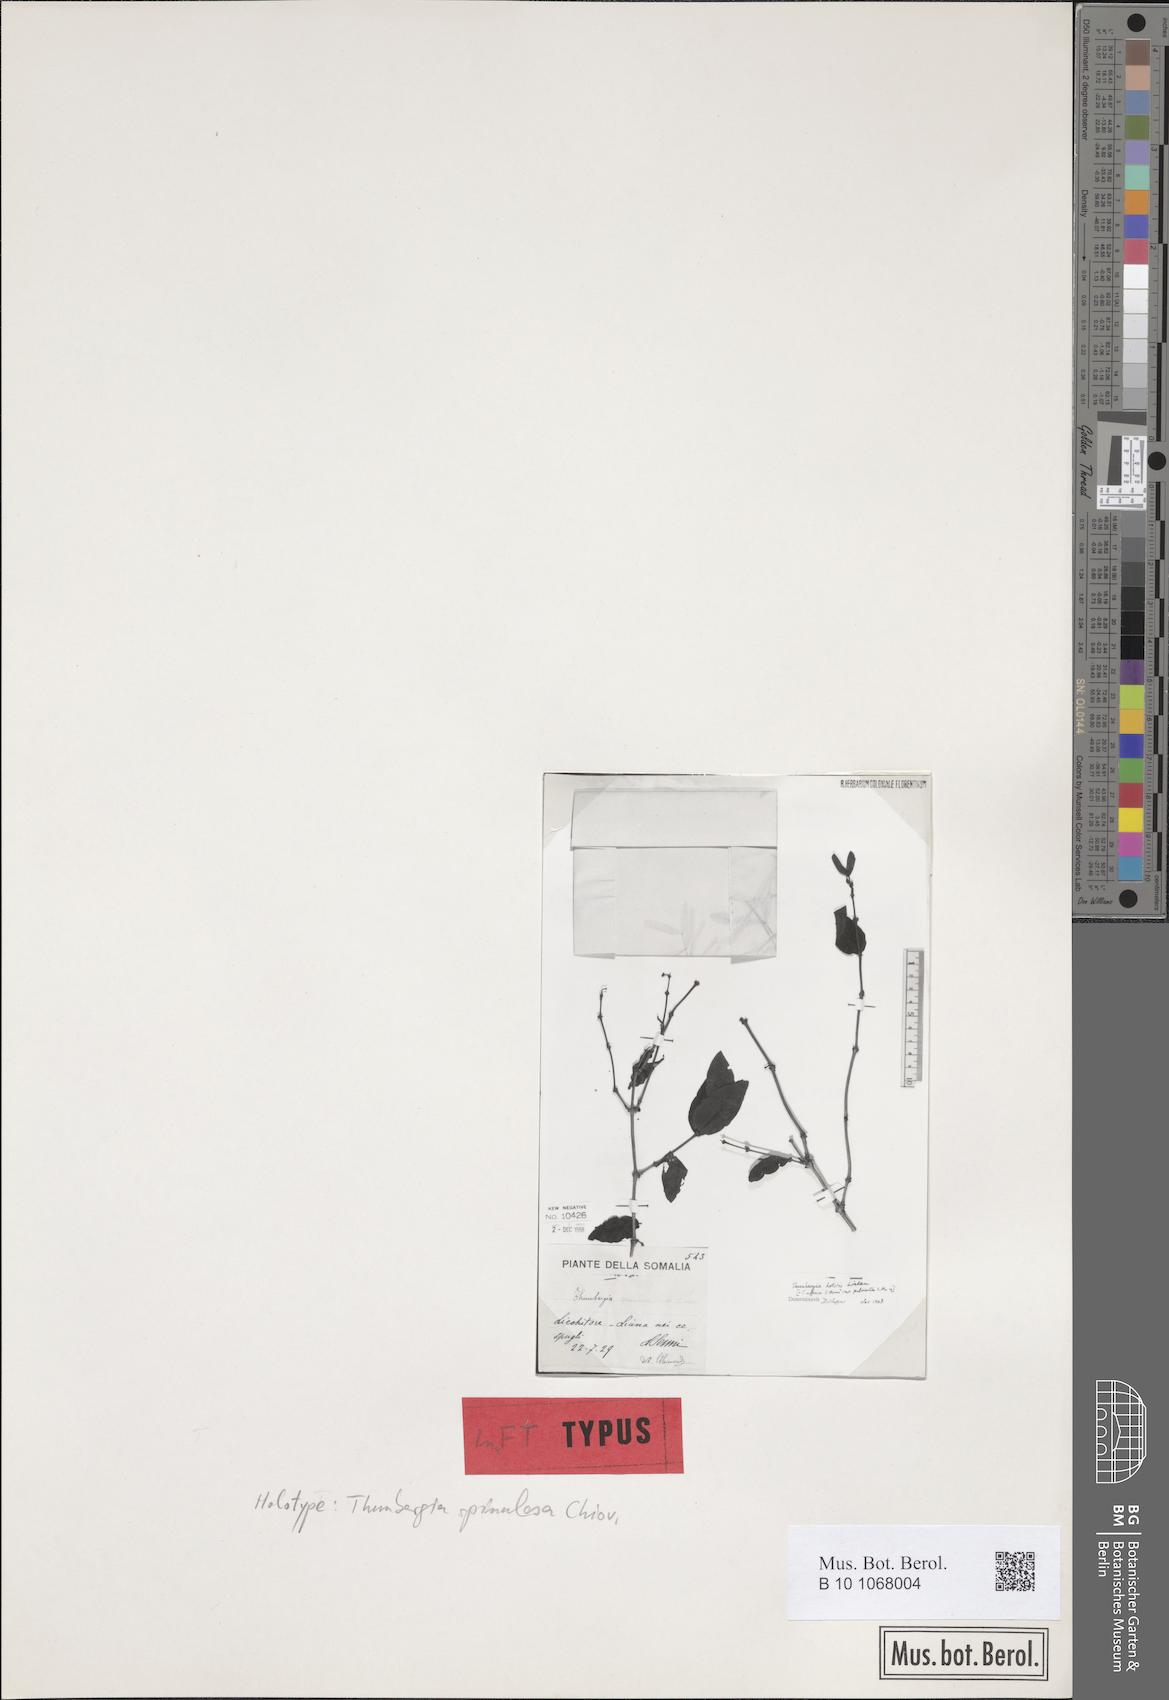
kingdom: Plantae
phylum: Tracheophyta
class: Magnoliopsida
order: Lamiales
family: Acanthaceae
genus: Thunbergia
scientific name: Thunbergia affinis
